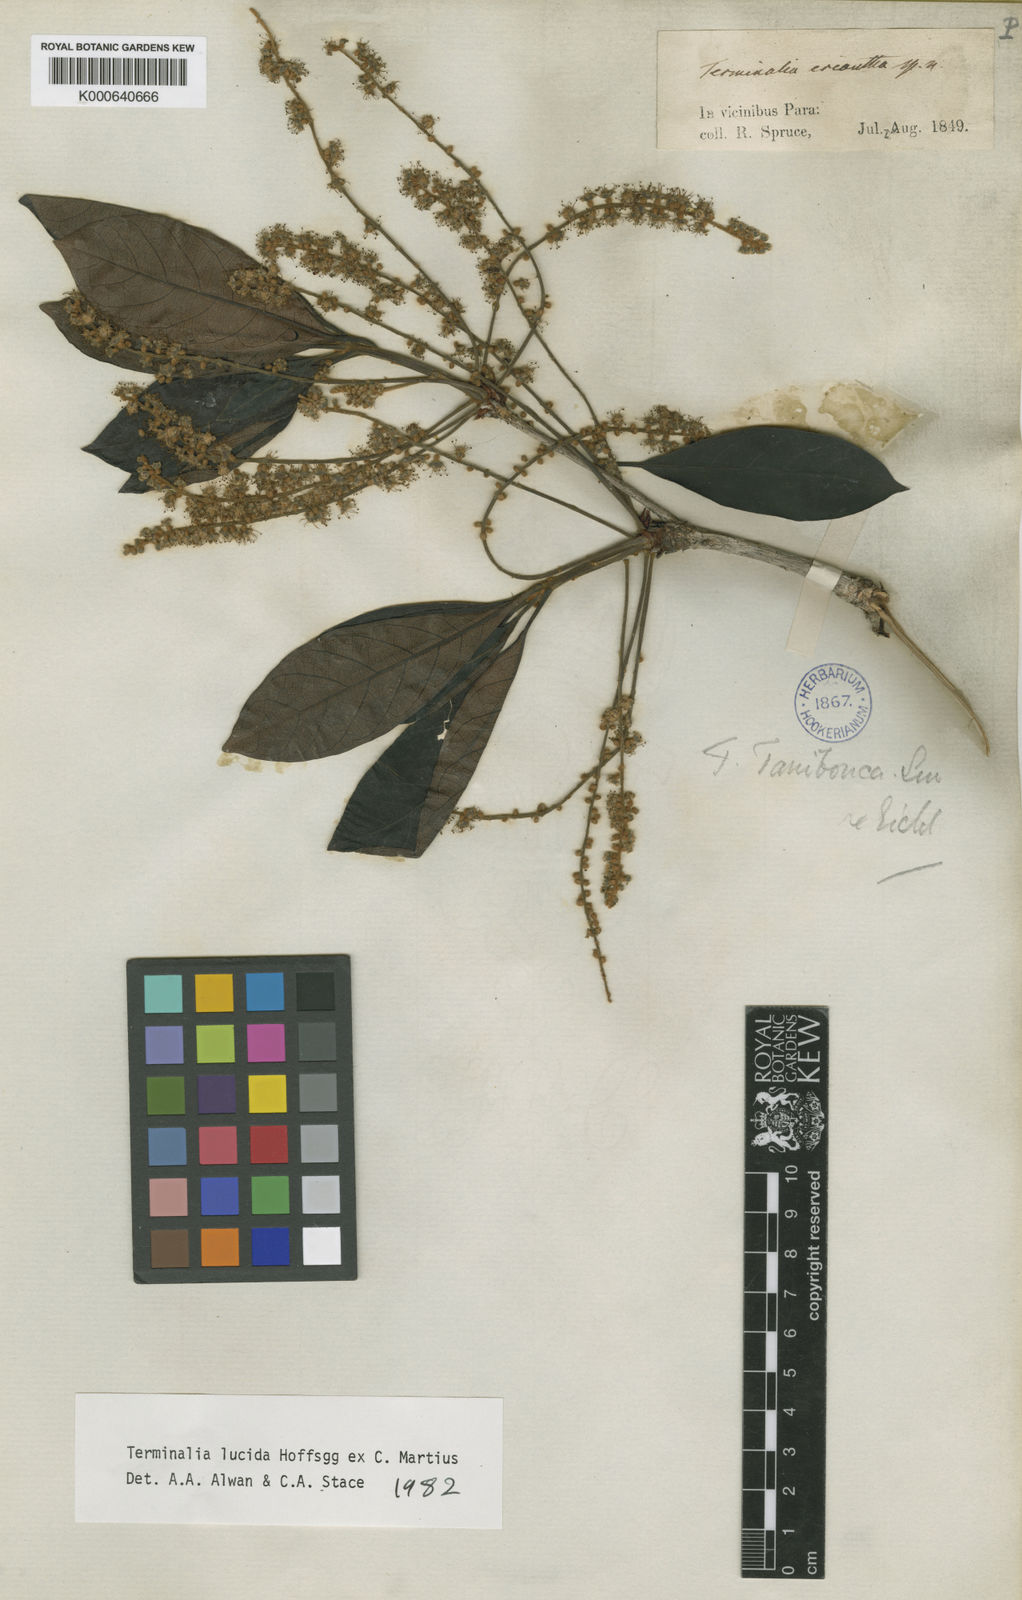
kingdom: Plantae
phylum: Tracheophyta
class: Magnoliopsida
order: Myrtales
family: Combretaceae
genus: Terminalia
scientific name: Terminalia lucida
